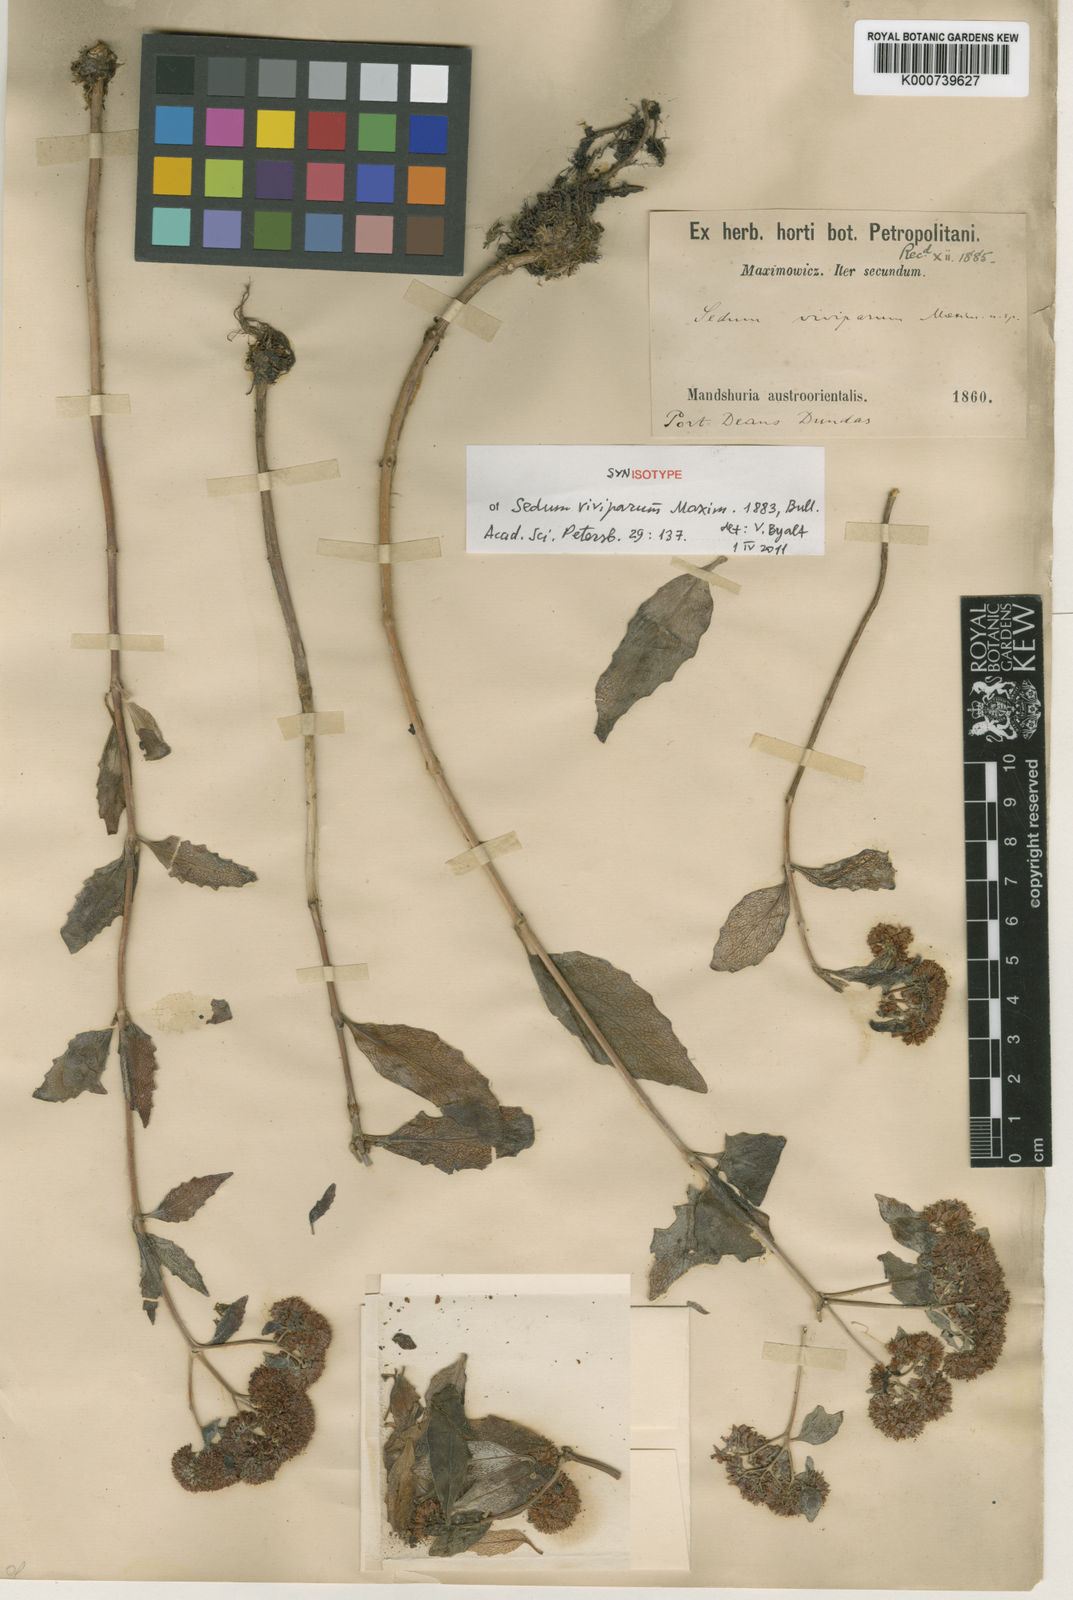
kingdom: Plantae
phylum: Tracheophyta
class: Magnoliopsida
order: Saxifragales
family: Crassulaceae
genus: Hylotelephium
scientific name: Hylotelephium viviparum
